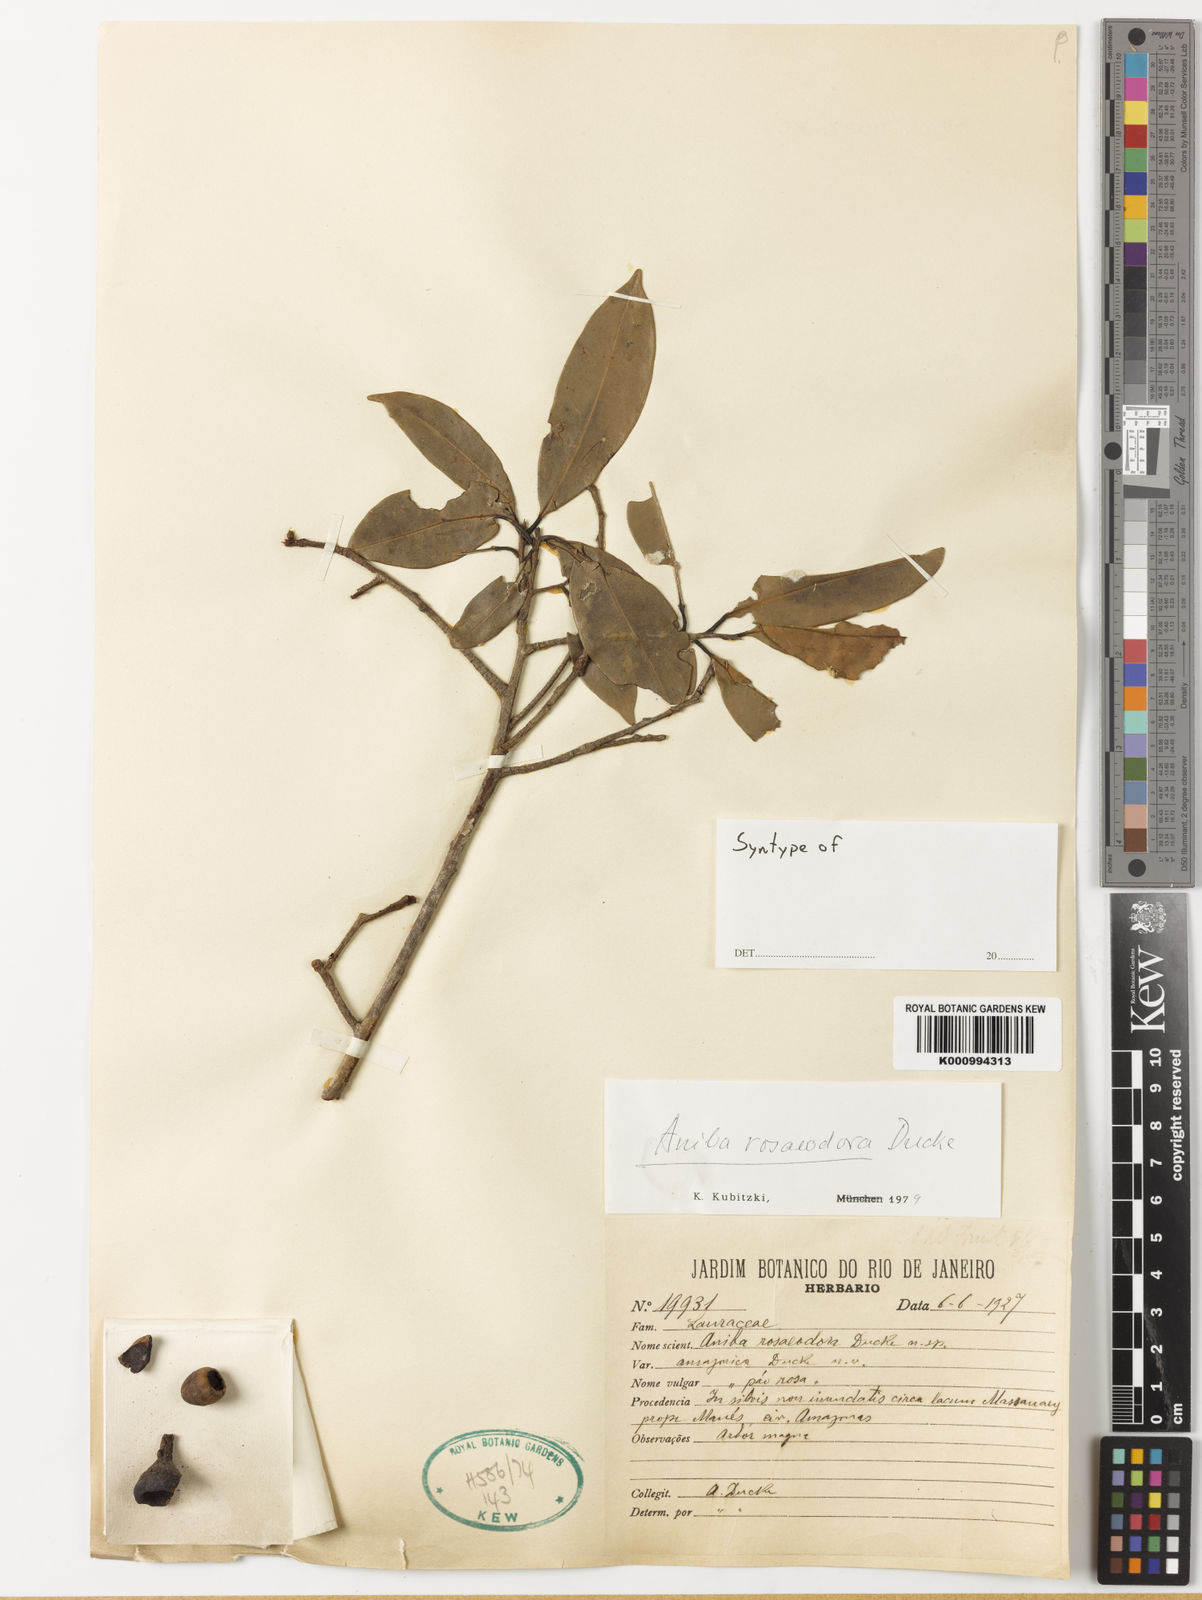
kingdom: Plantae
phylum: Tracheophyta
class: Magnoliopsida
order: Laurales
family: Lauraceae
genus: Aniba
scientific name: Aniba rosaeodora
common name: Brazilian rosewood
